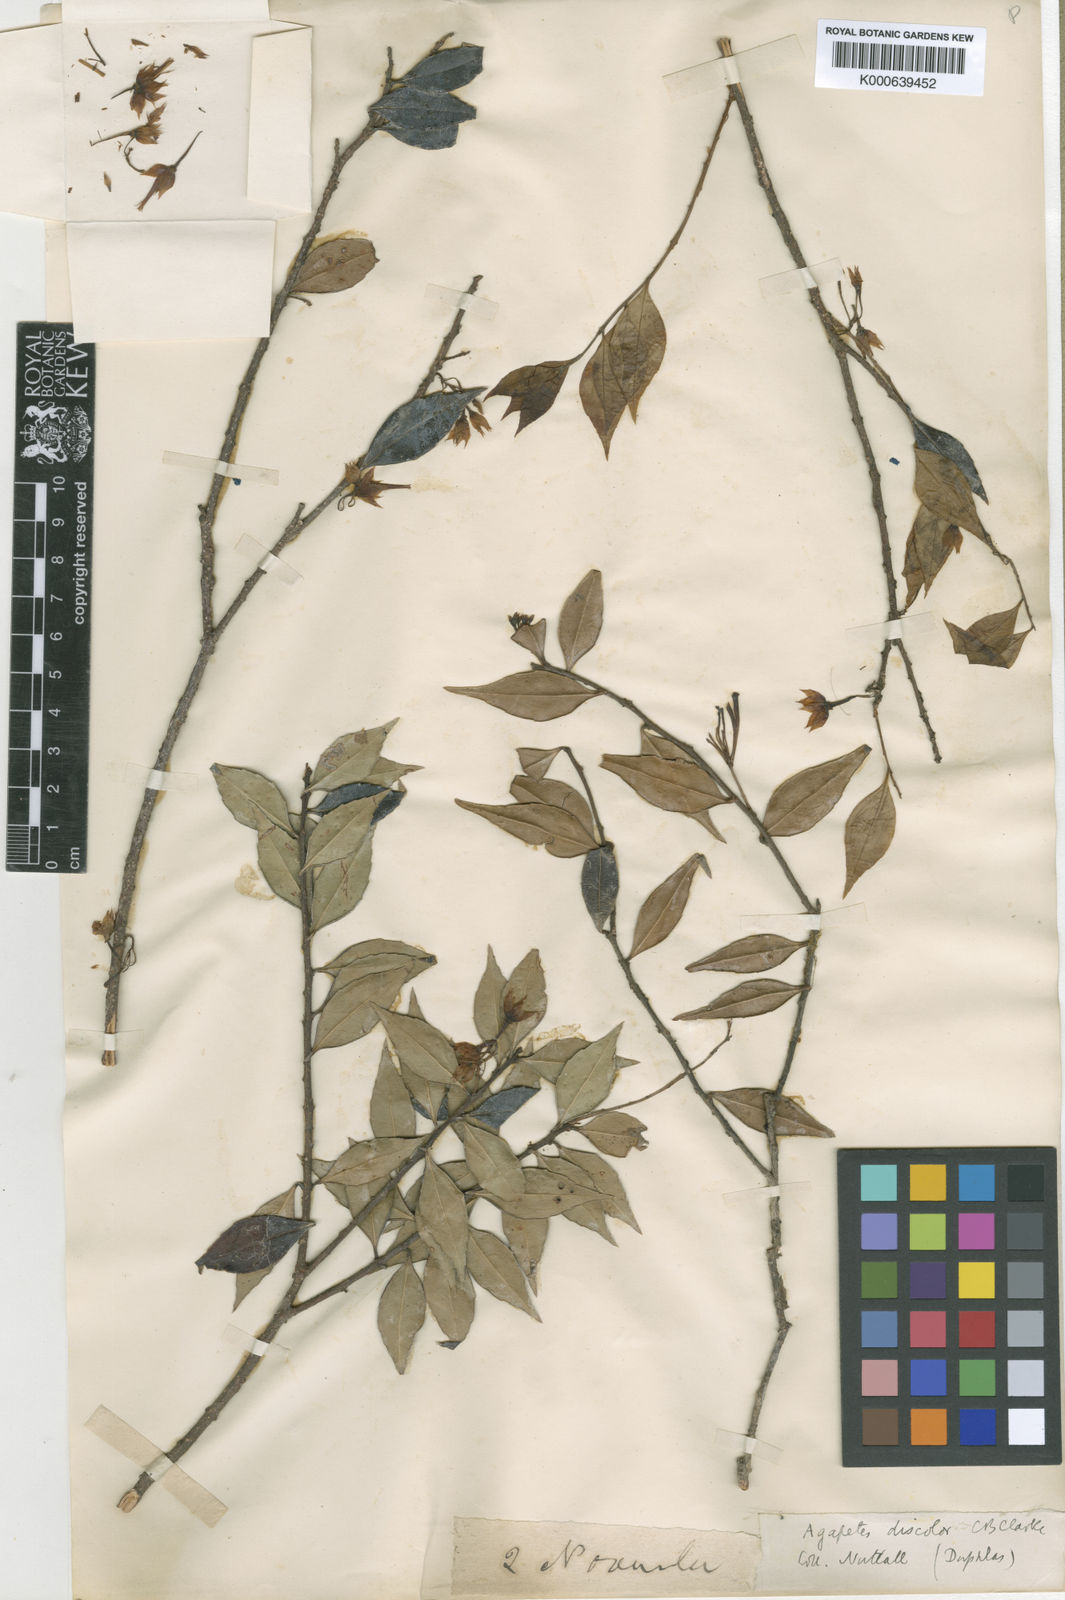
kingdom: Plantae
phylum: Tracheophyta
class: Magnoliopsida
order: Ericales
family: Ericaceae
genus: Agapetes
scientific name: Agapetes discolor
